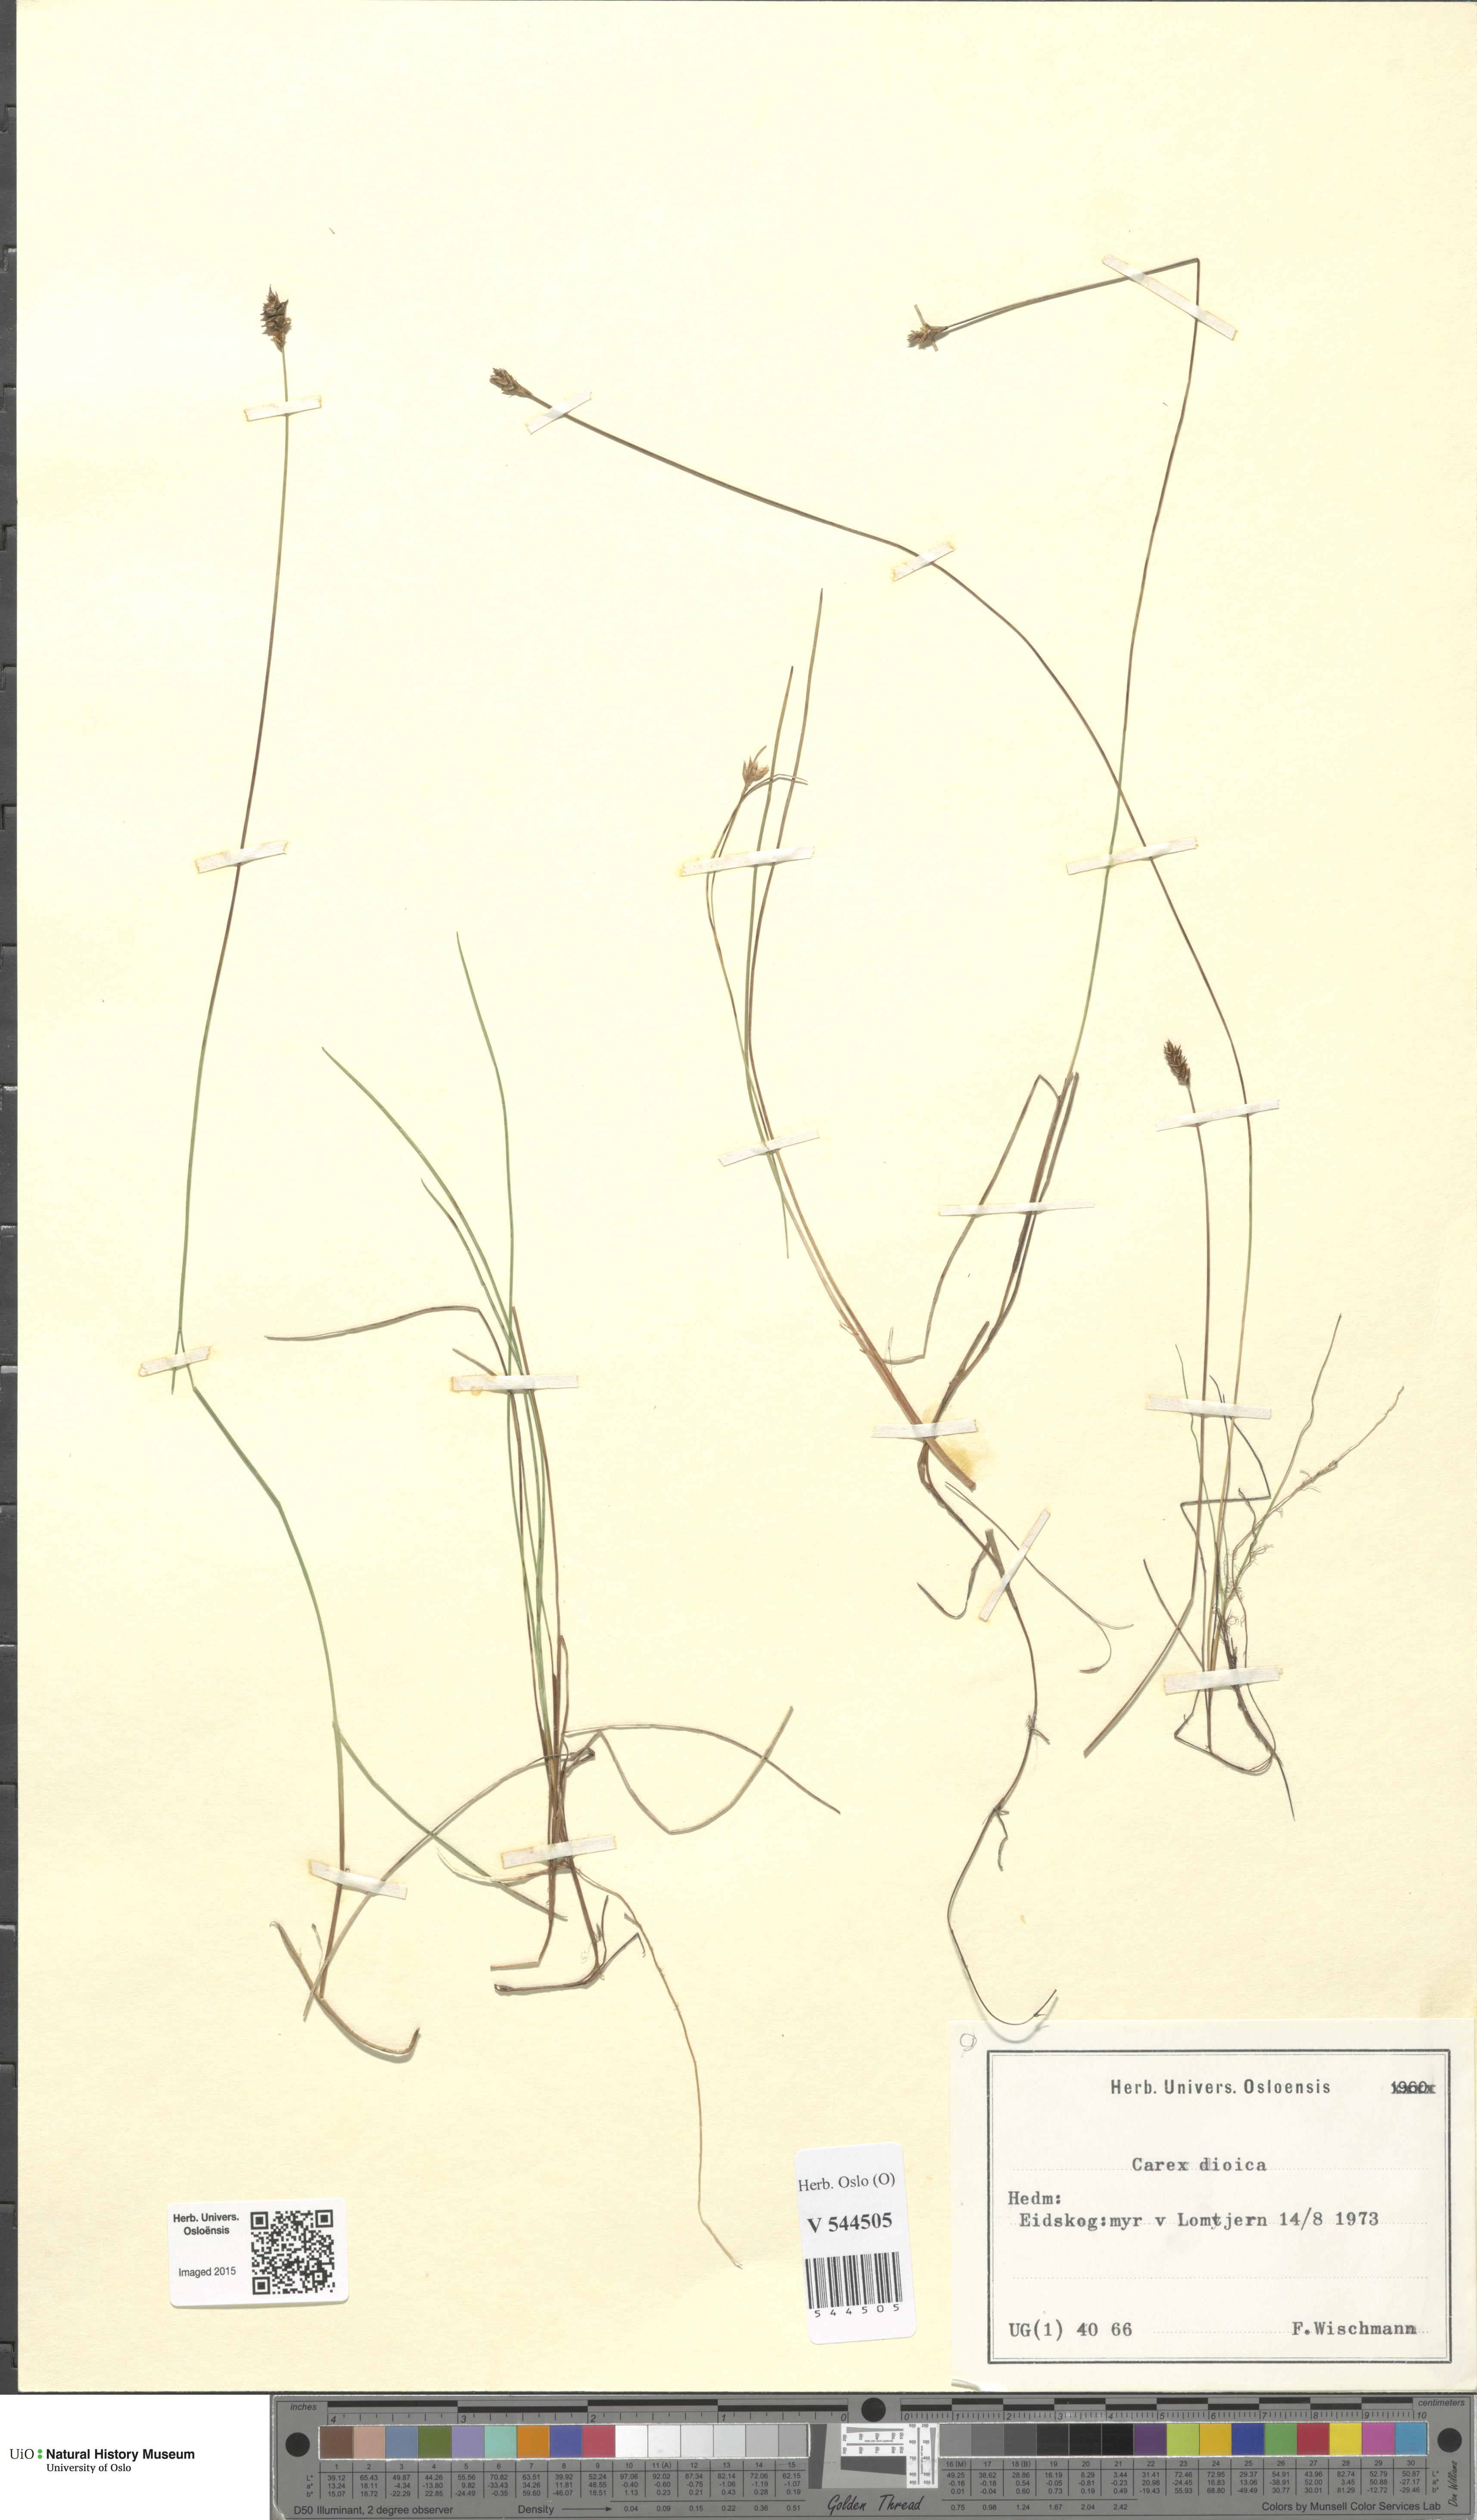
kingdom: Plantae
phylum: Tracheophyta
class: Liliopsida
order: Poales
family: Cyperaceae
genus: Carex
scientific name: Carex dioica
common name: Dioecious sedge
